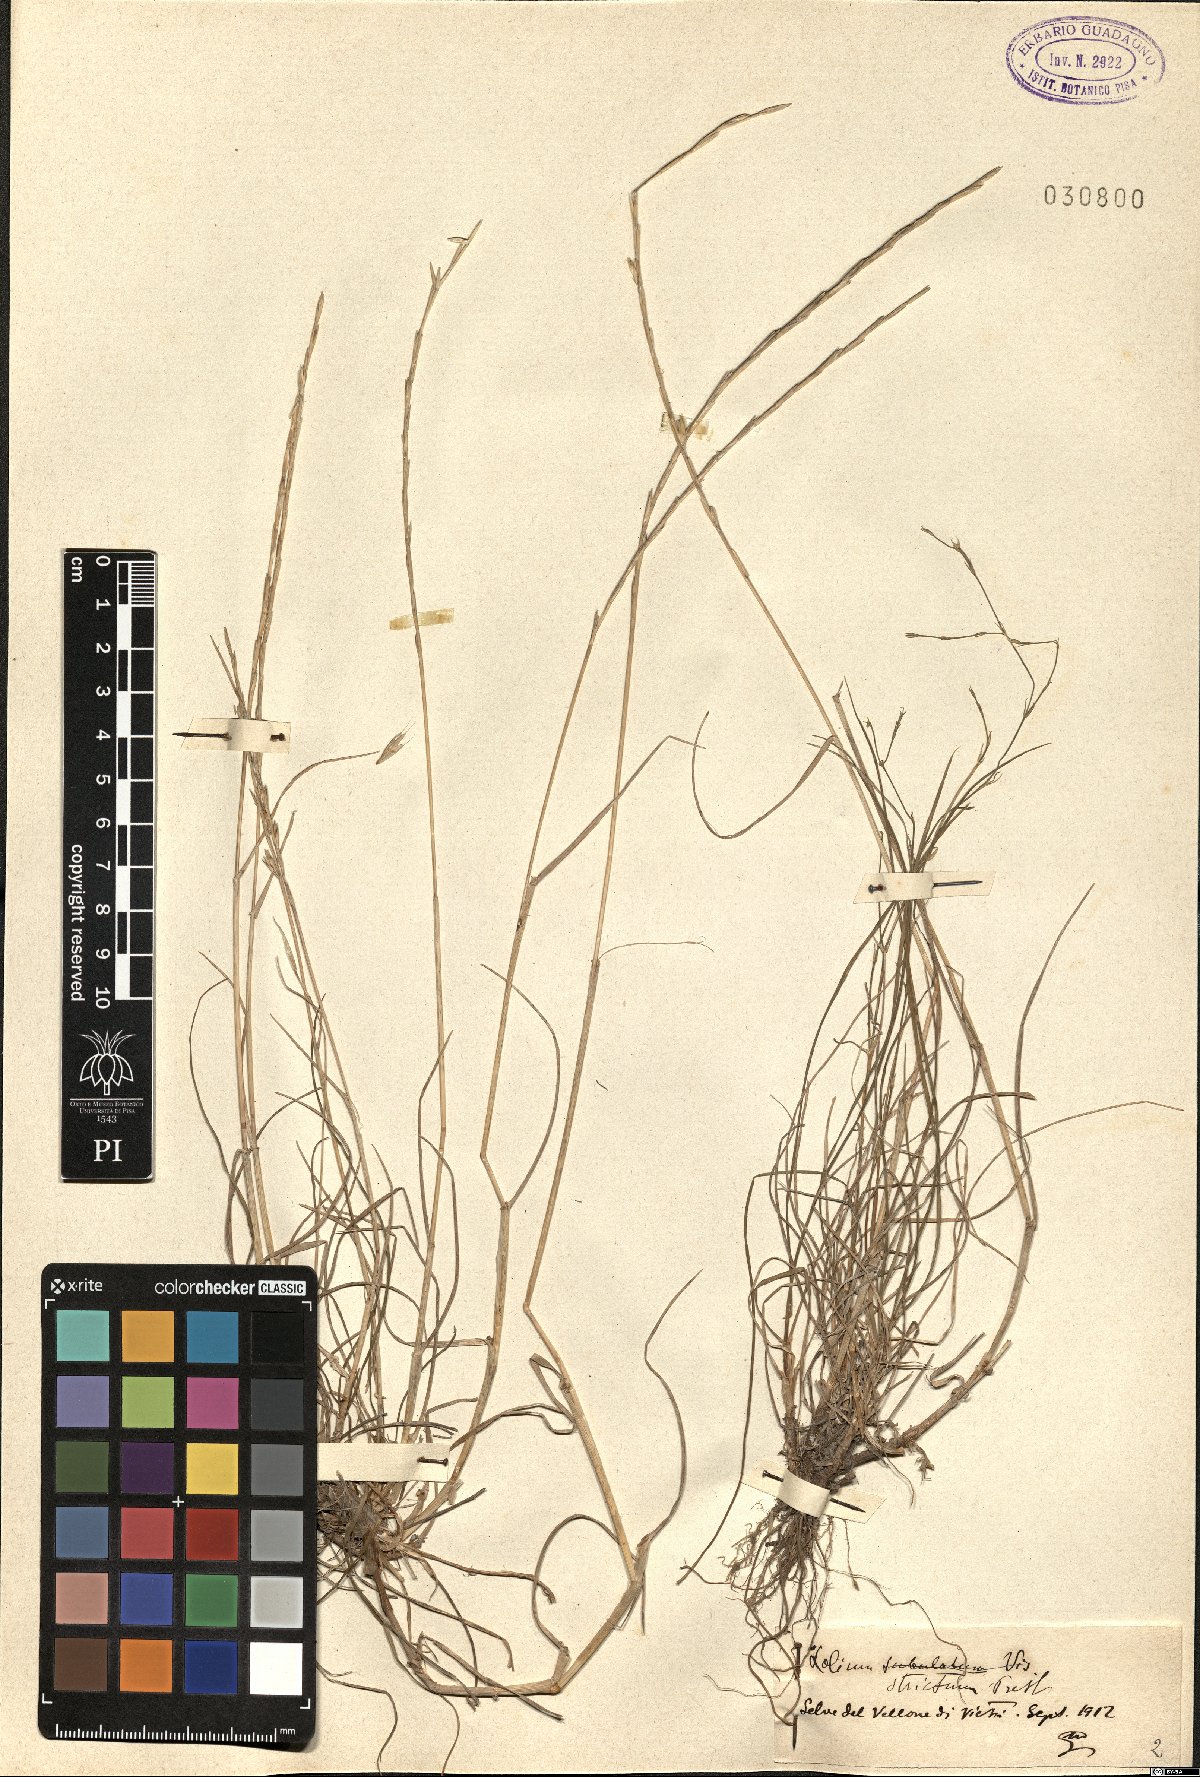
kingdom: Plantae
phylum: Tracheophyta
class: Liliopsida
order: Poales
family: Poaceae
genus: Lolium
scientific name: Lolium rigidum
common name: Wimmera ryegrass
